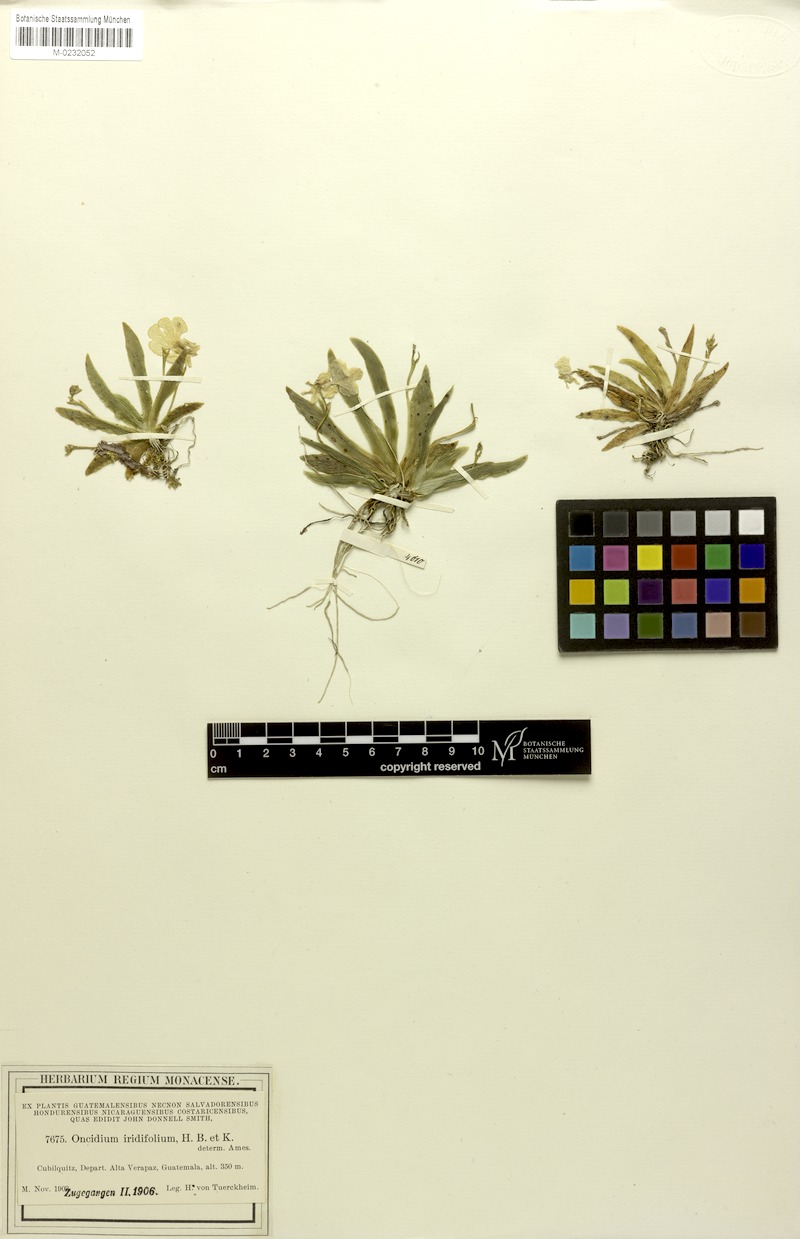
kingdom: Plantae
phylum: Tracheophyta
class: Liliopsida
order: Asparagales
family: Orchidaceae
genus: Erycina
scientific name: Erycina pusilla
